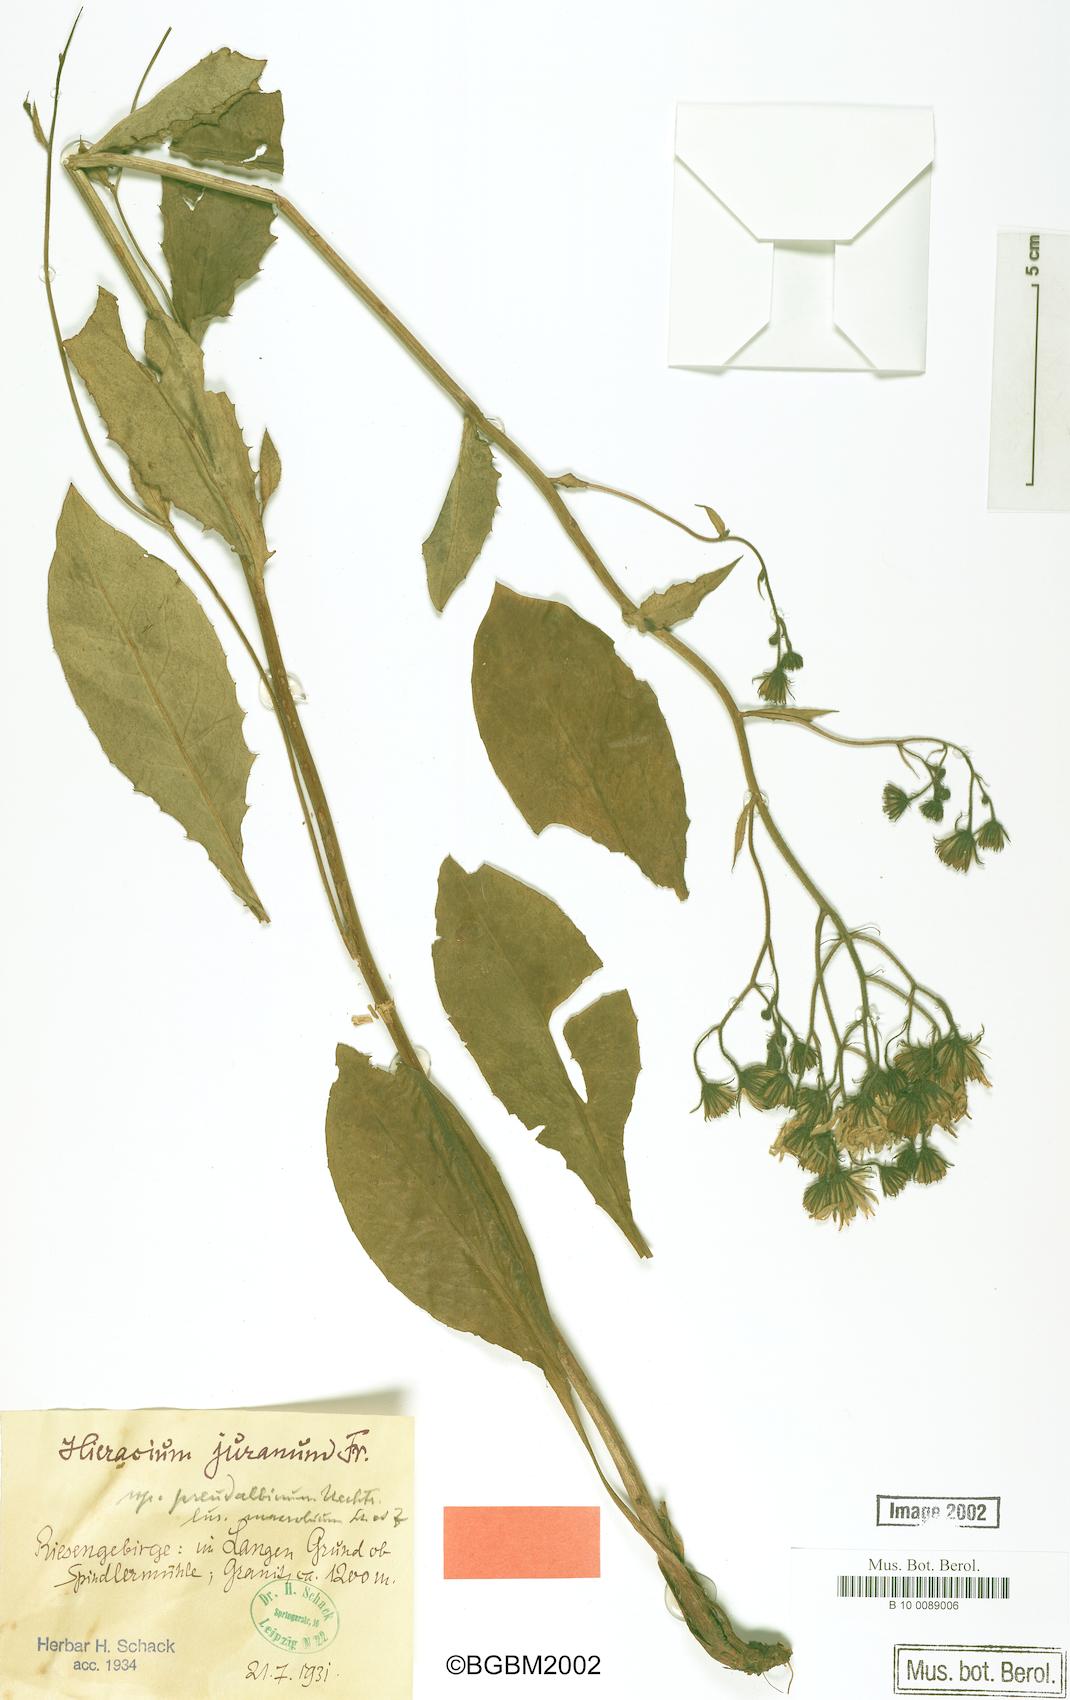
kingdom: Plantae
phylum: Tracheophyta
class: Magnoliopsida
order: Asterales
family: Asteraceae
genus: Hieracium
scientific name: Hieracium juranum
